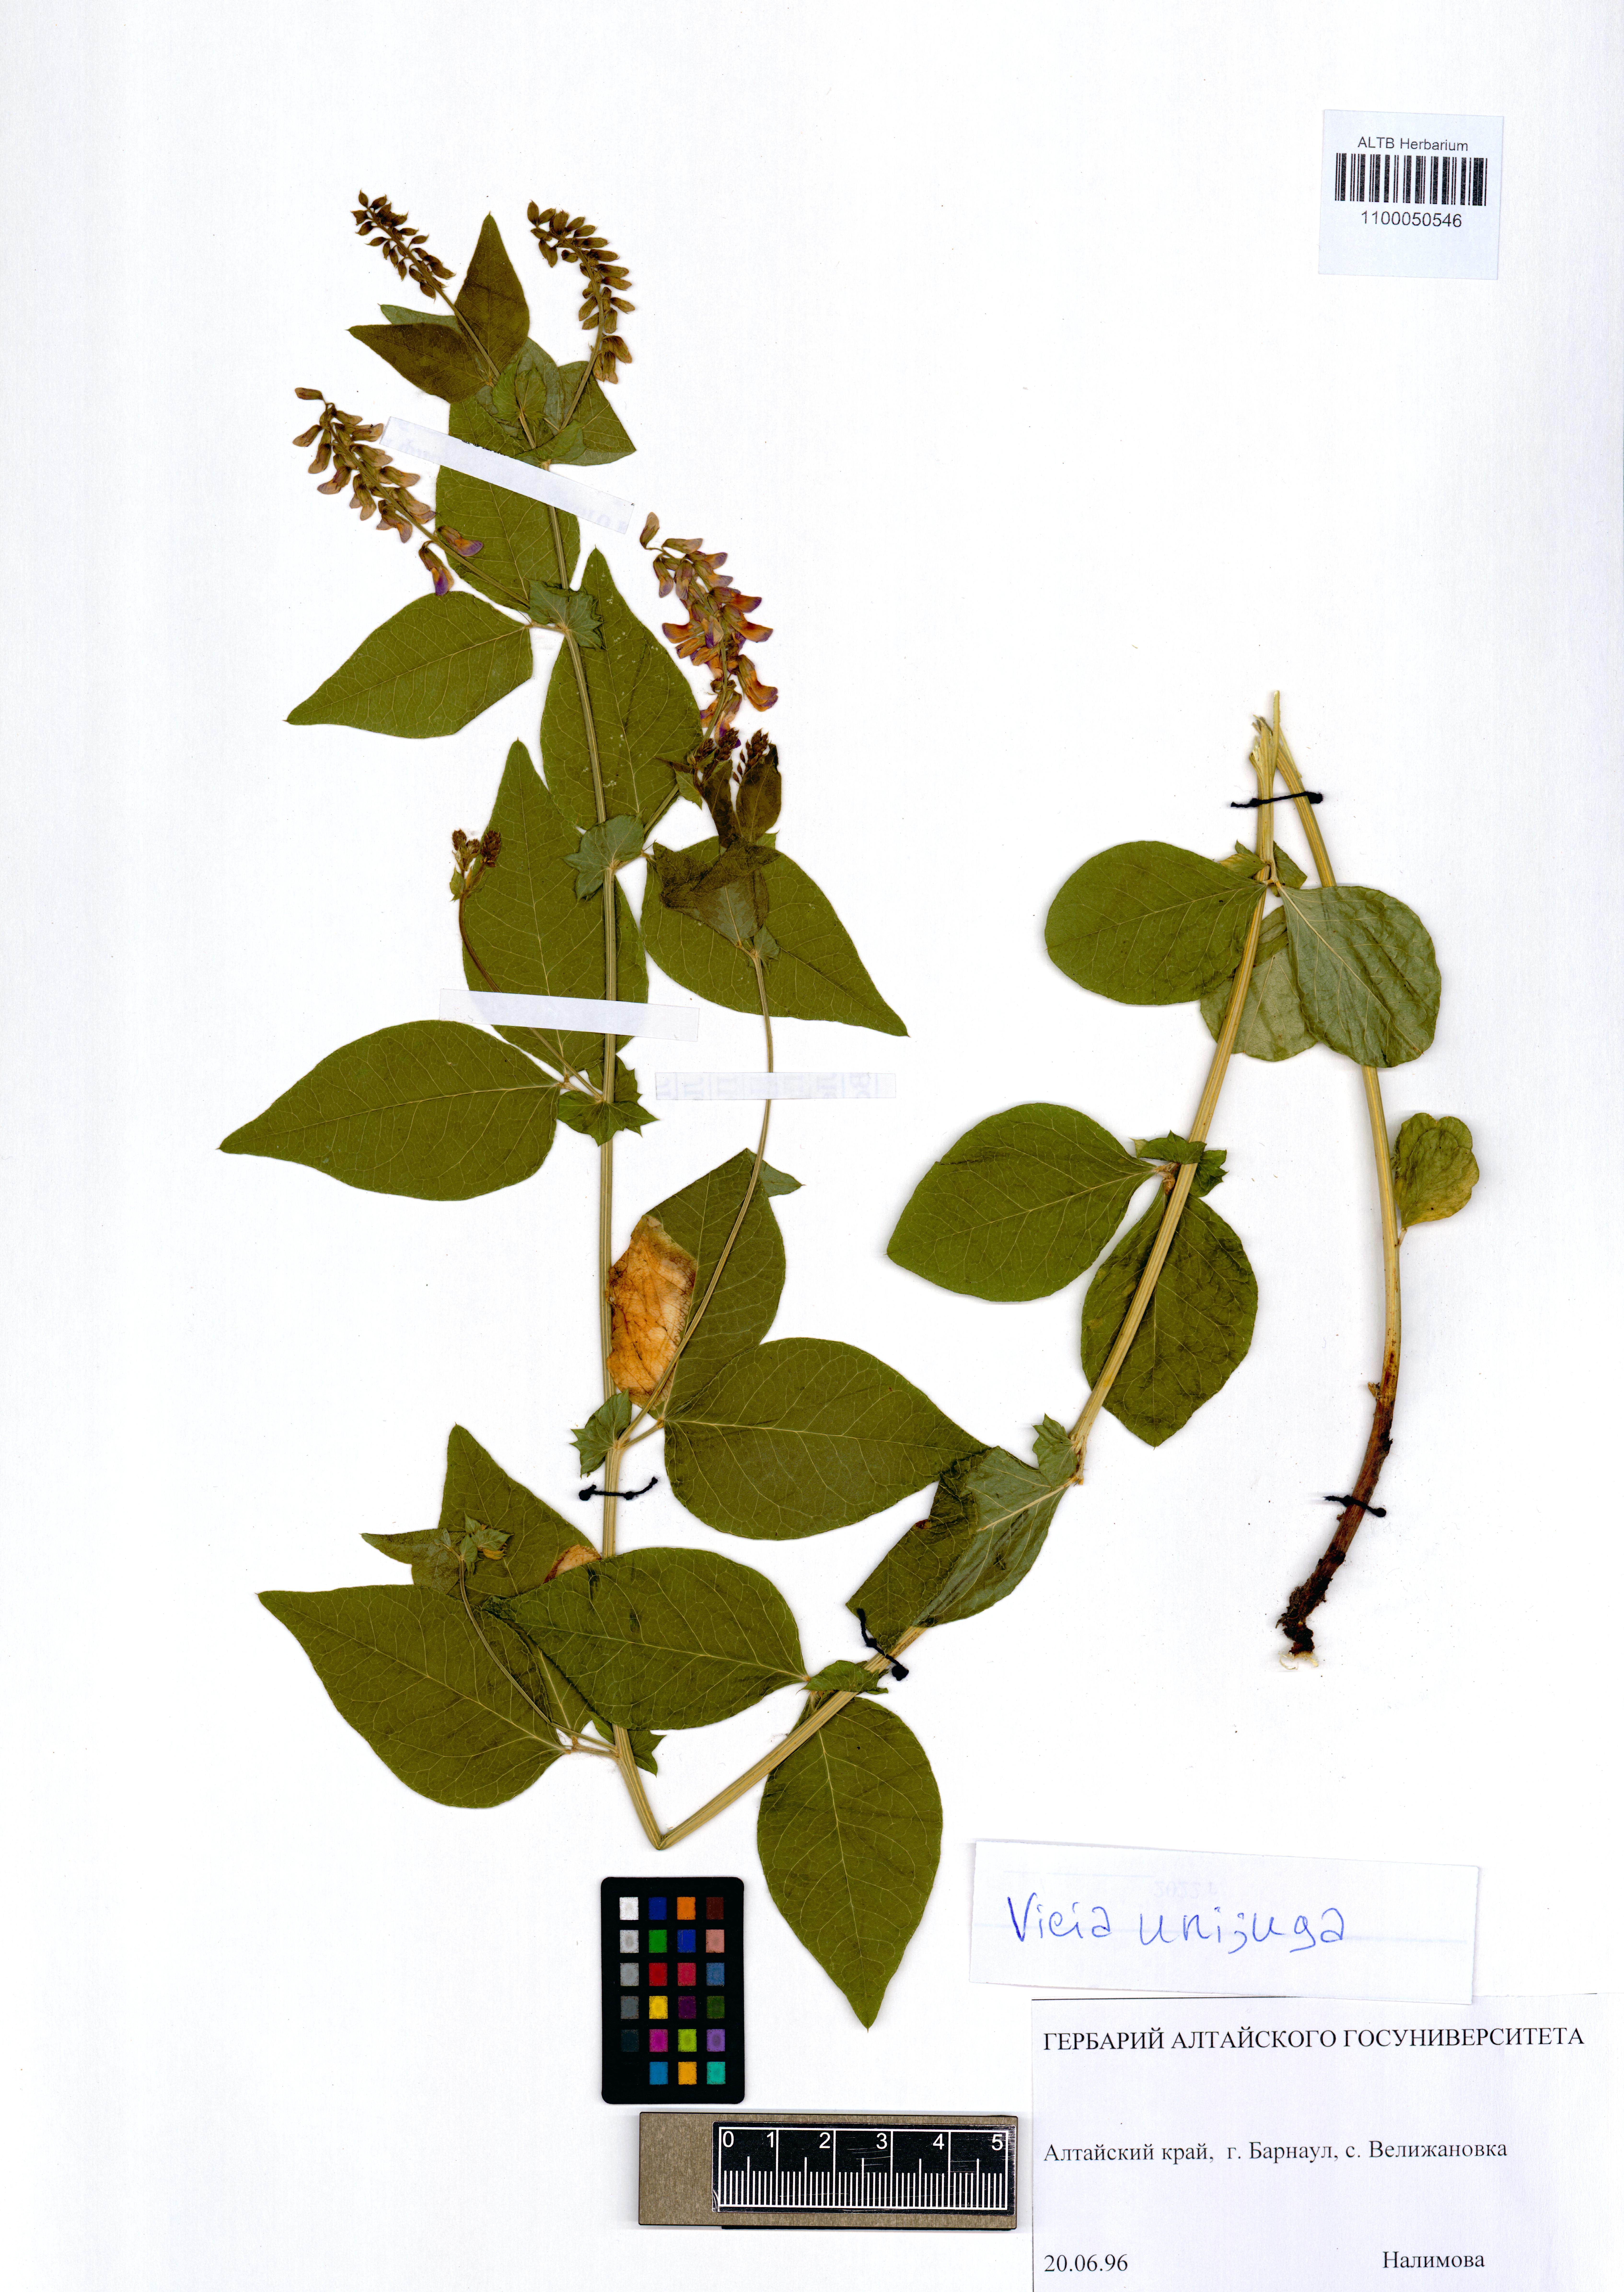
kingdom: Plantae
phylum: Tracheophyta
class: Magnoliopsida
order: Fabales
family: Fabaceae
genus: Vicia
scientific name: Vicia unijuga
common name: Two-leaf vetch
